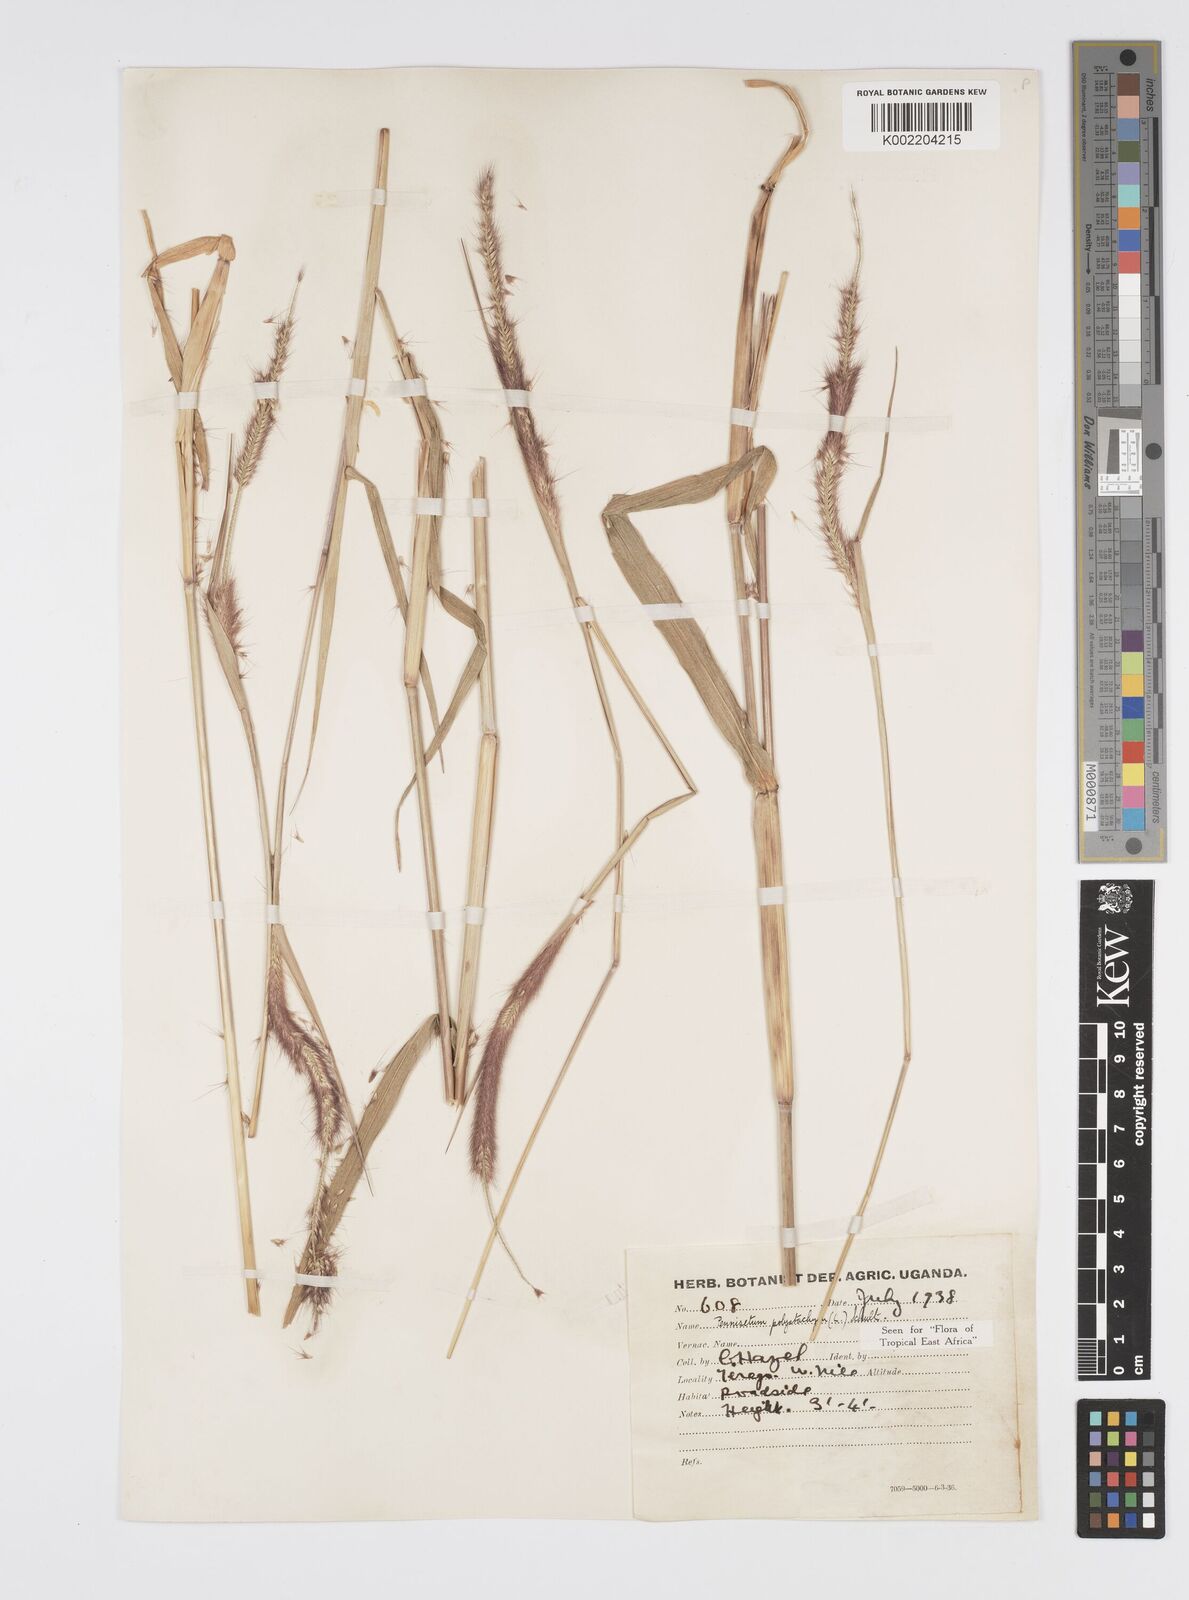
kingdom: Plantae
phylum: Tracheophyta
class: Liliopsida
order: Poales
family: Poaceae
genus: Setaria
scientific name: Setaria parviflora
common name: Knotroot bristle-grass
